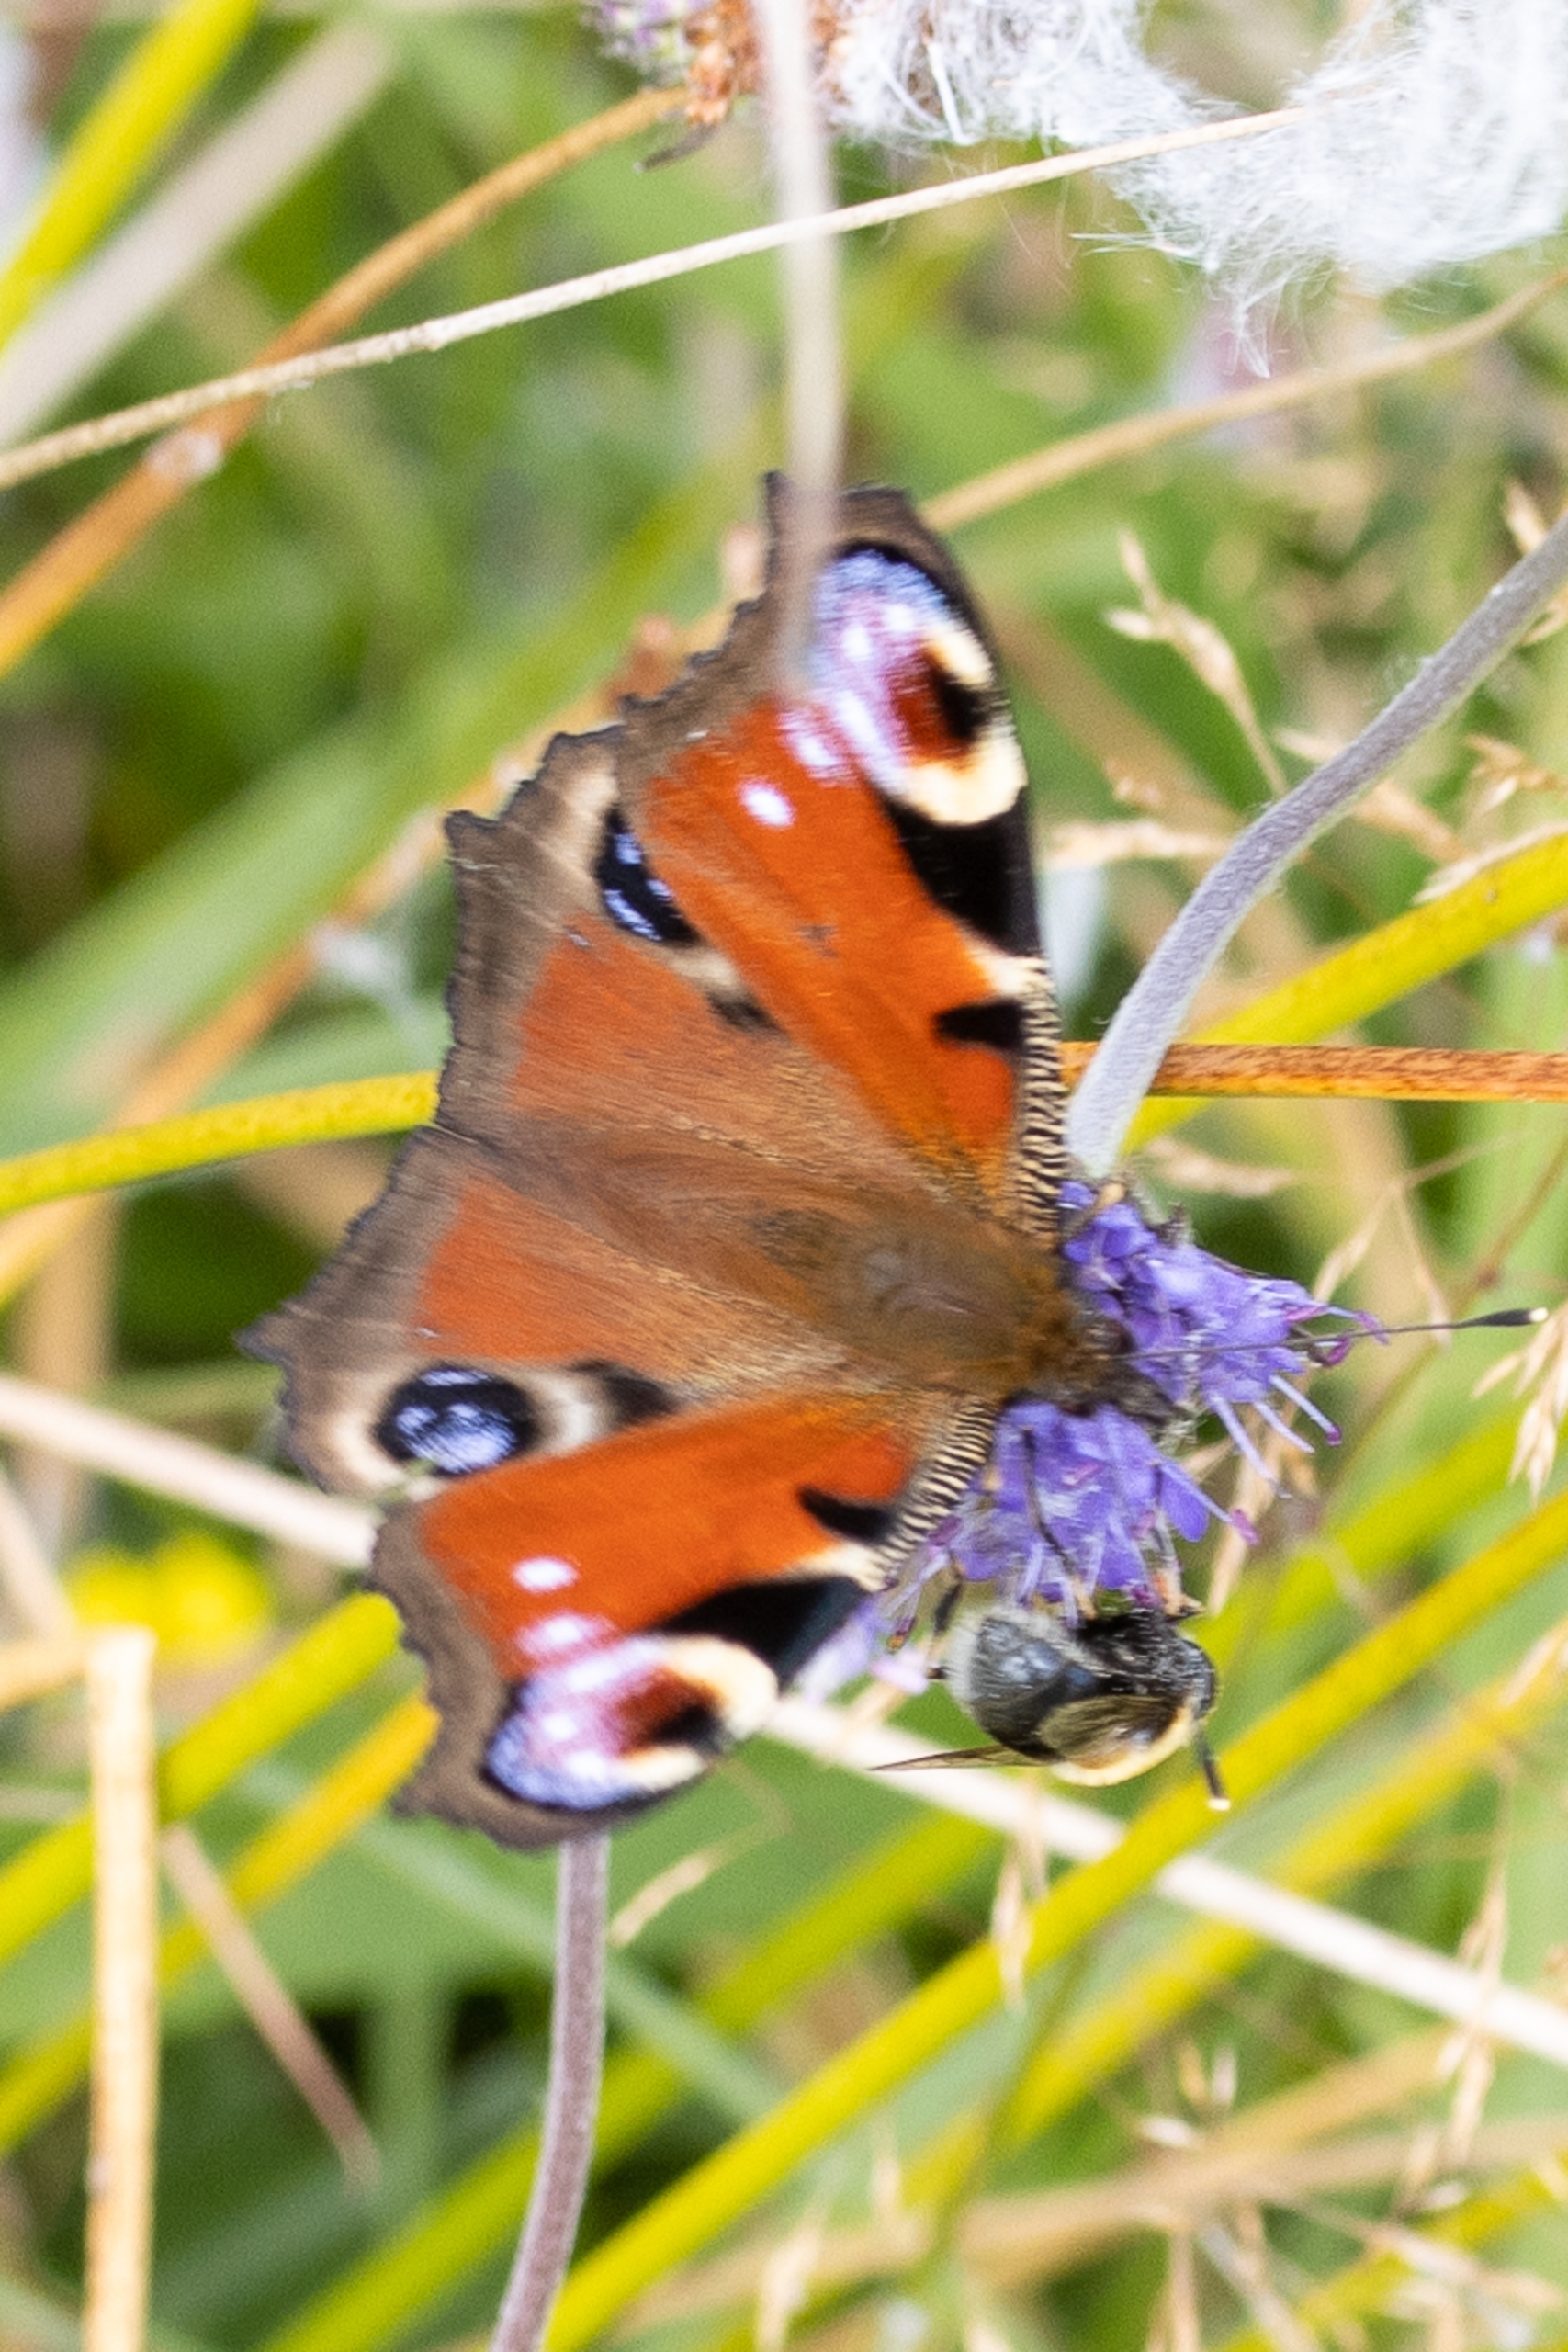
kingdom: Animalia
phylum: Arthropoda
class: Insecta
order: Lepidoptera
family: Nymphalidae
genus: Aglais
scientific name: Aglais io
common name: Dagpåfugleøje
